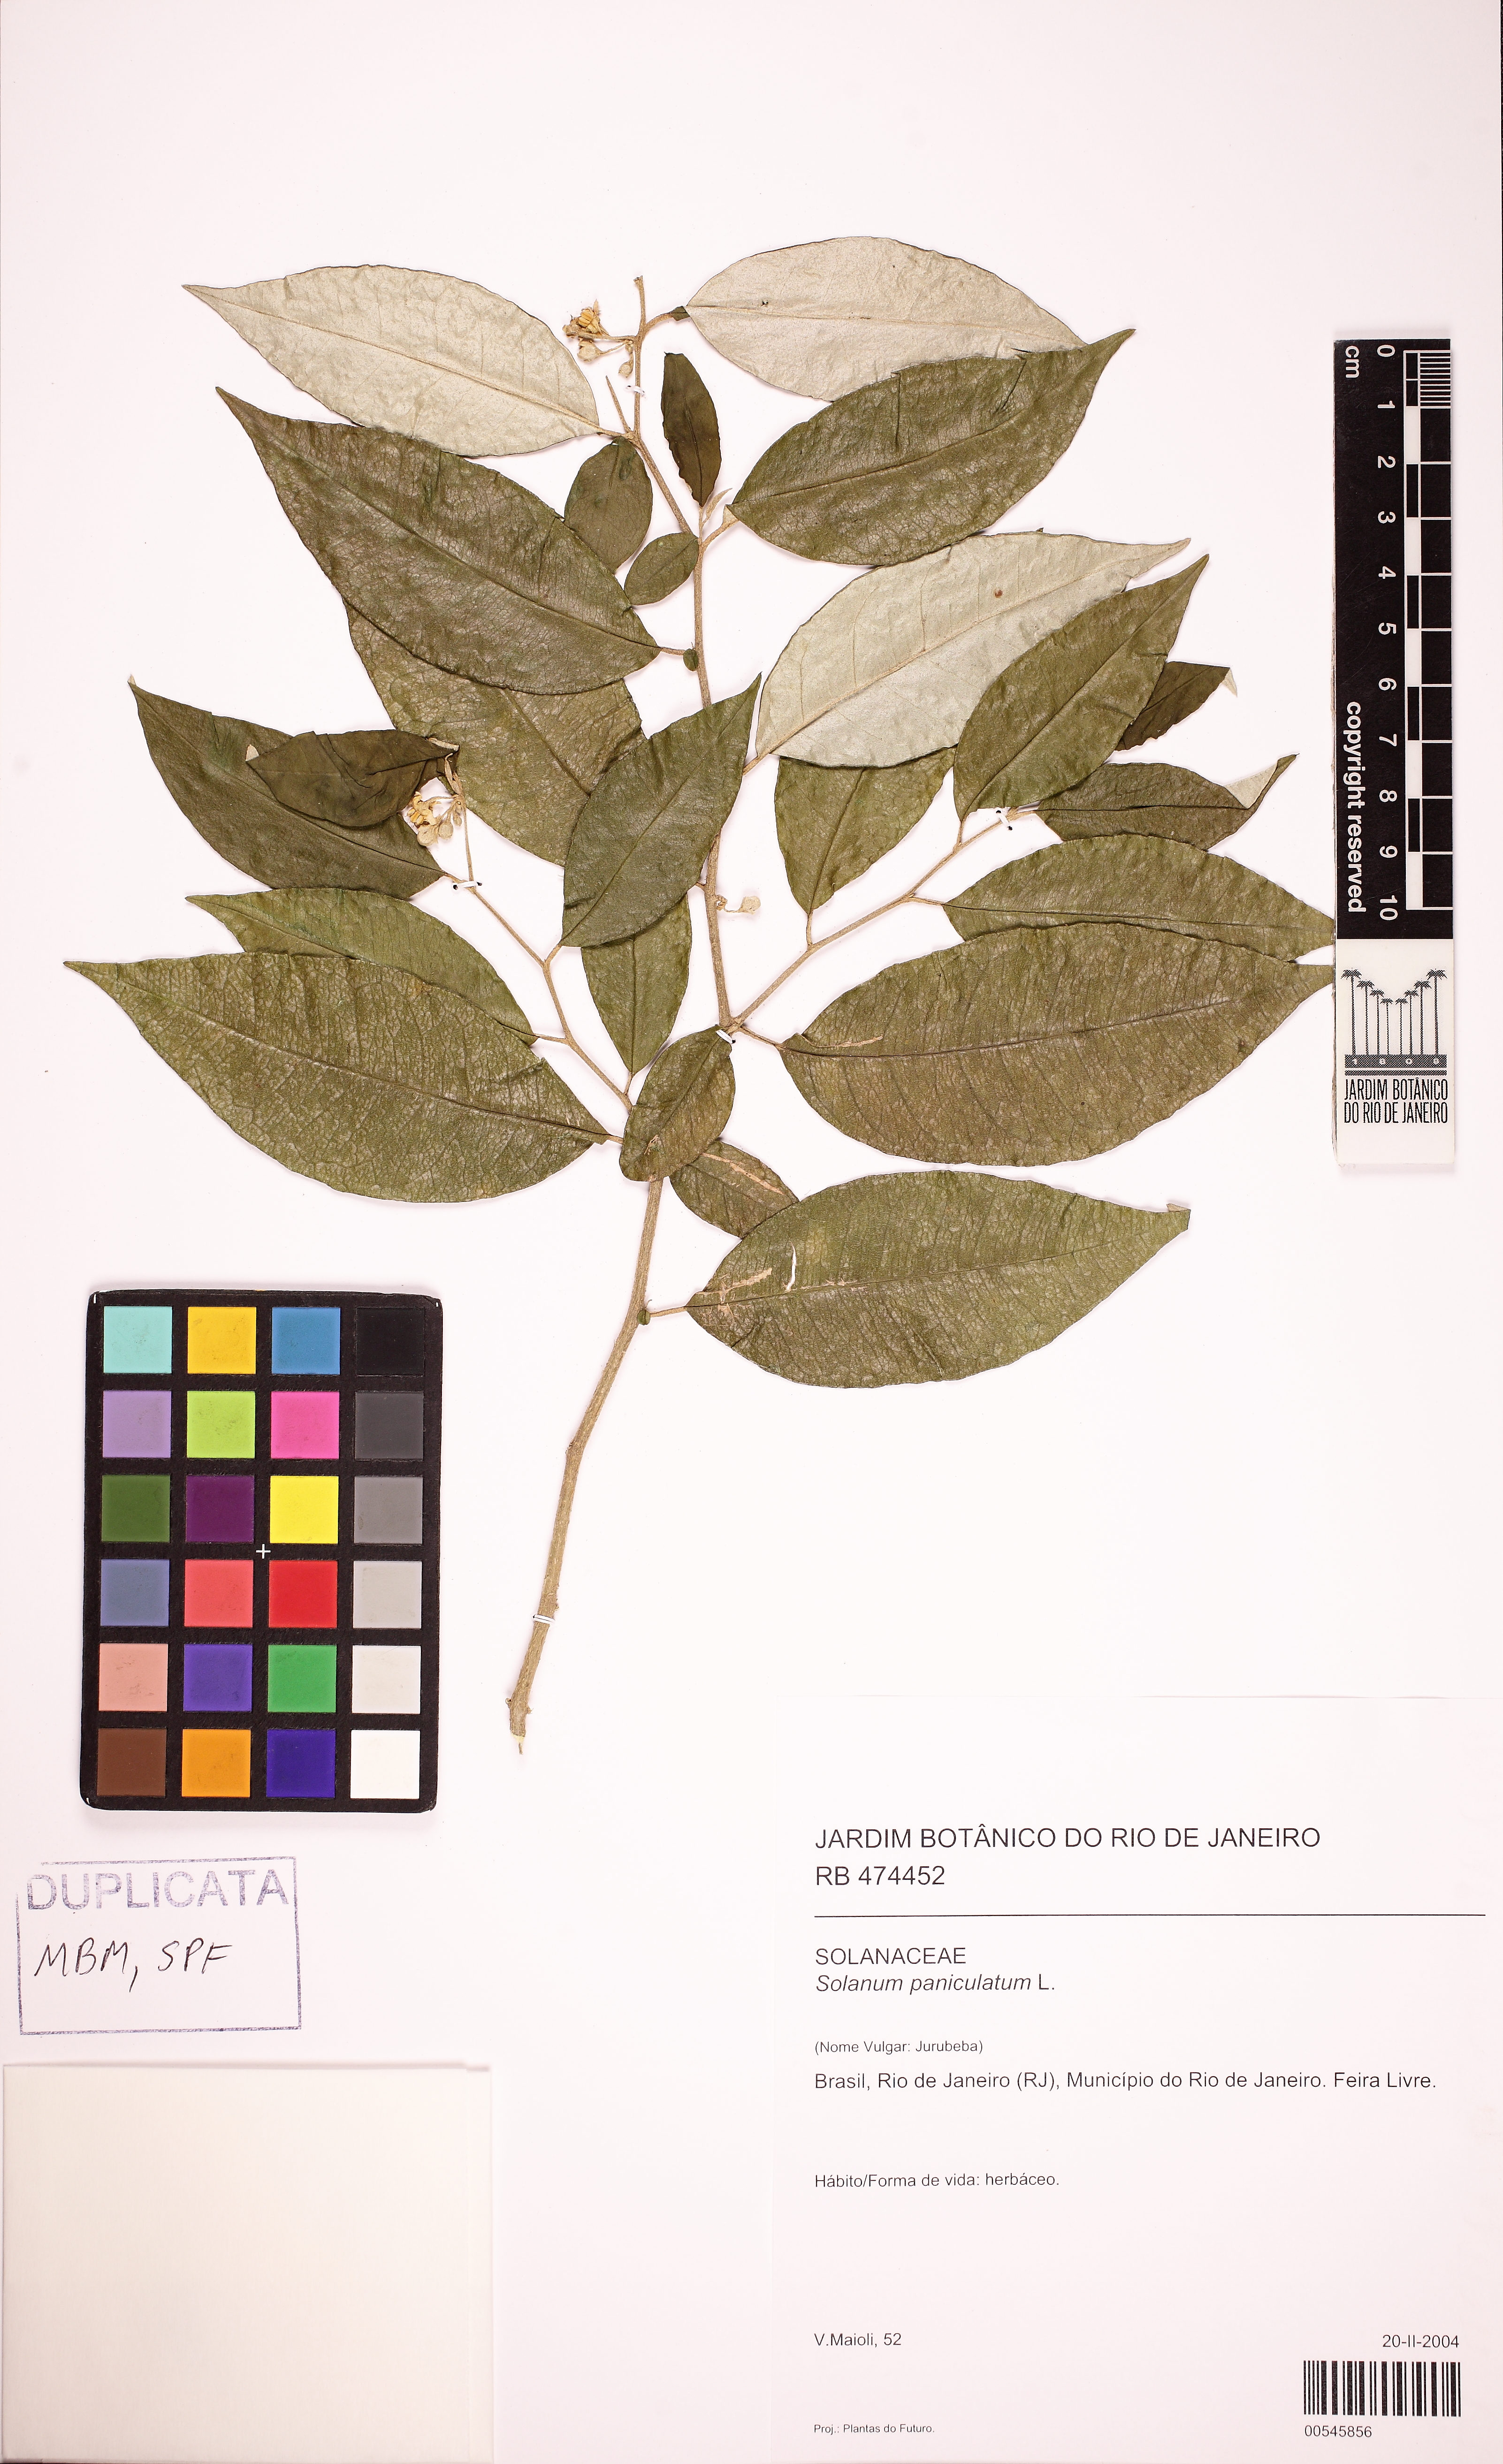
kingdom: Plantae
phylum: Tracheophyta
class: Magnoliopsida
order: Solanales
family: Solanaceae
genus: Solanum
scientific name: Solanum paniculatum
